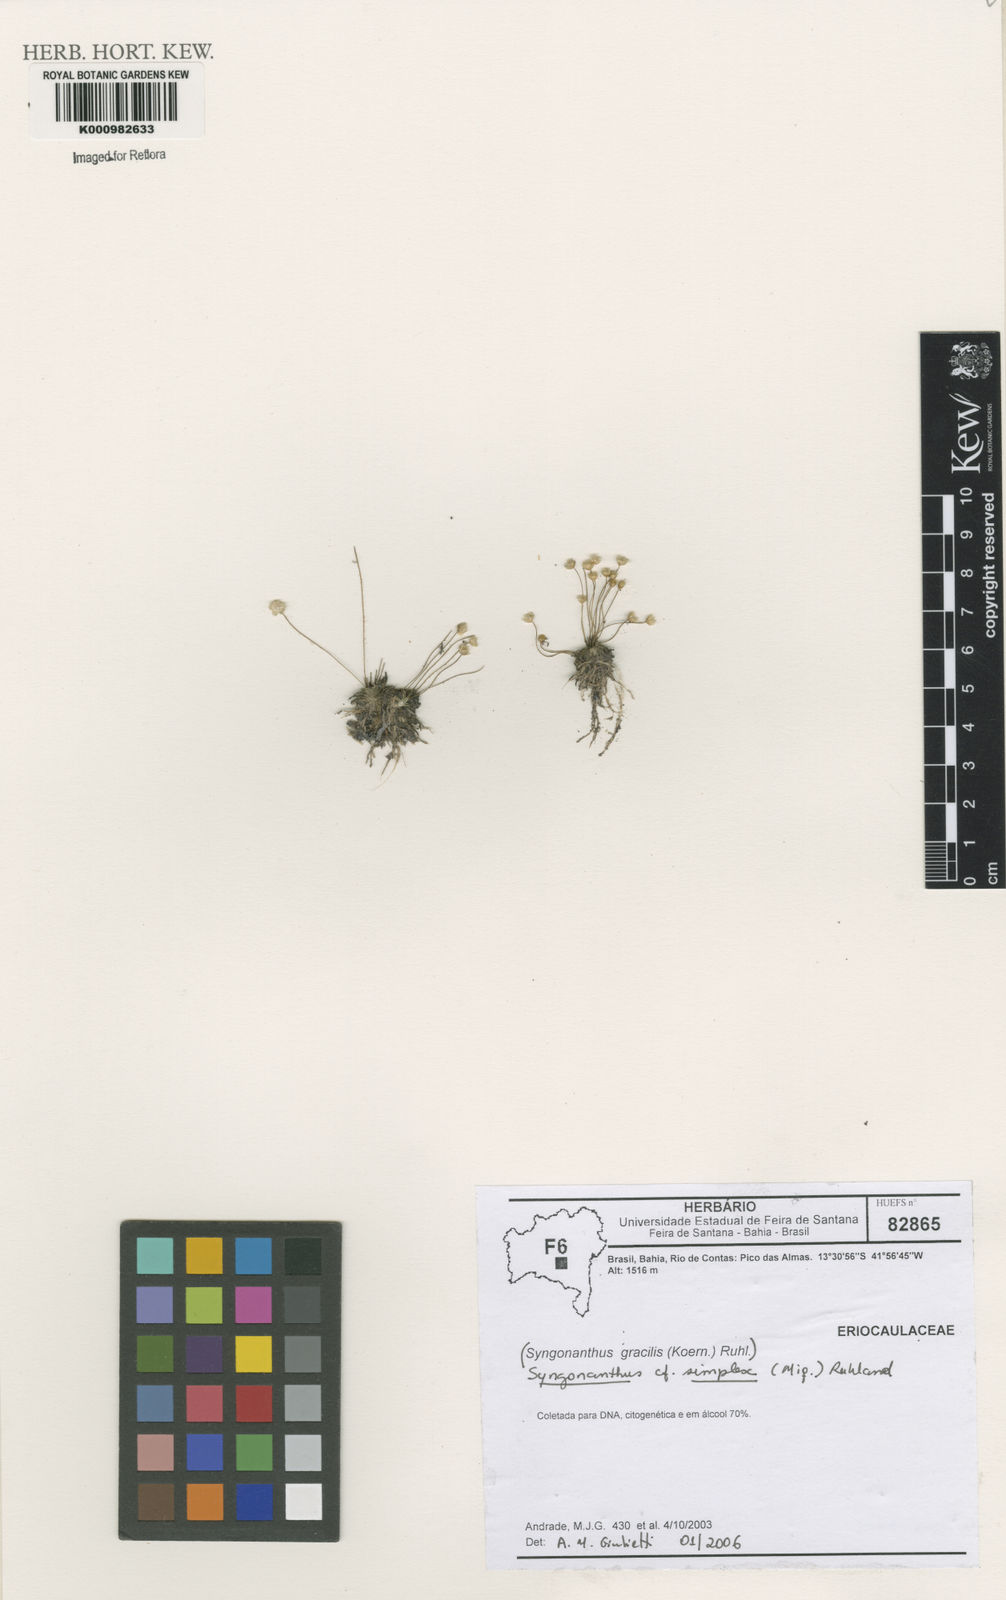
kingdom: Plantae
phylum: Tracheophyta
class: Liliopsida
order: Poales
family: Eriocaulaceae
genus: Syngonanthus
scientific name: Syngonanthus simplex
